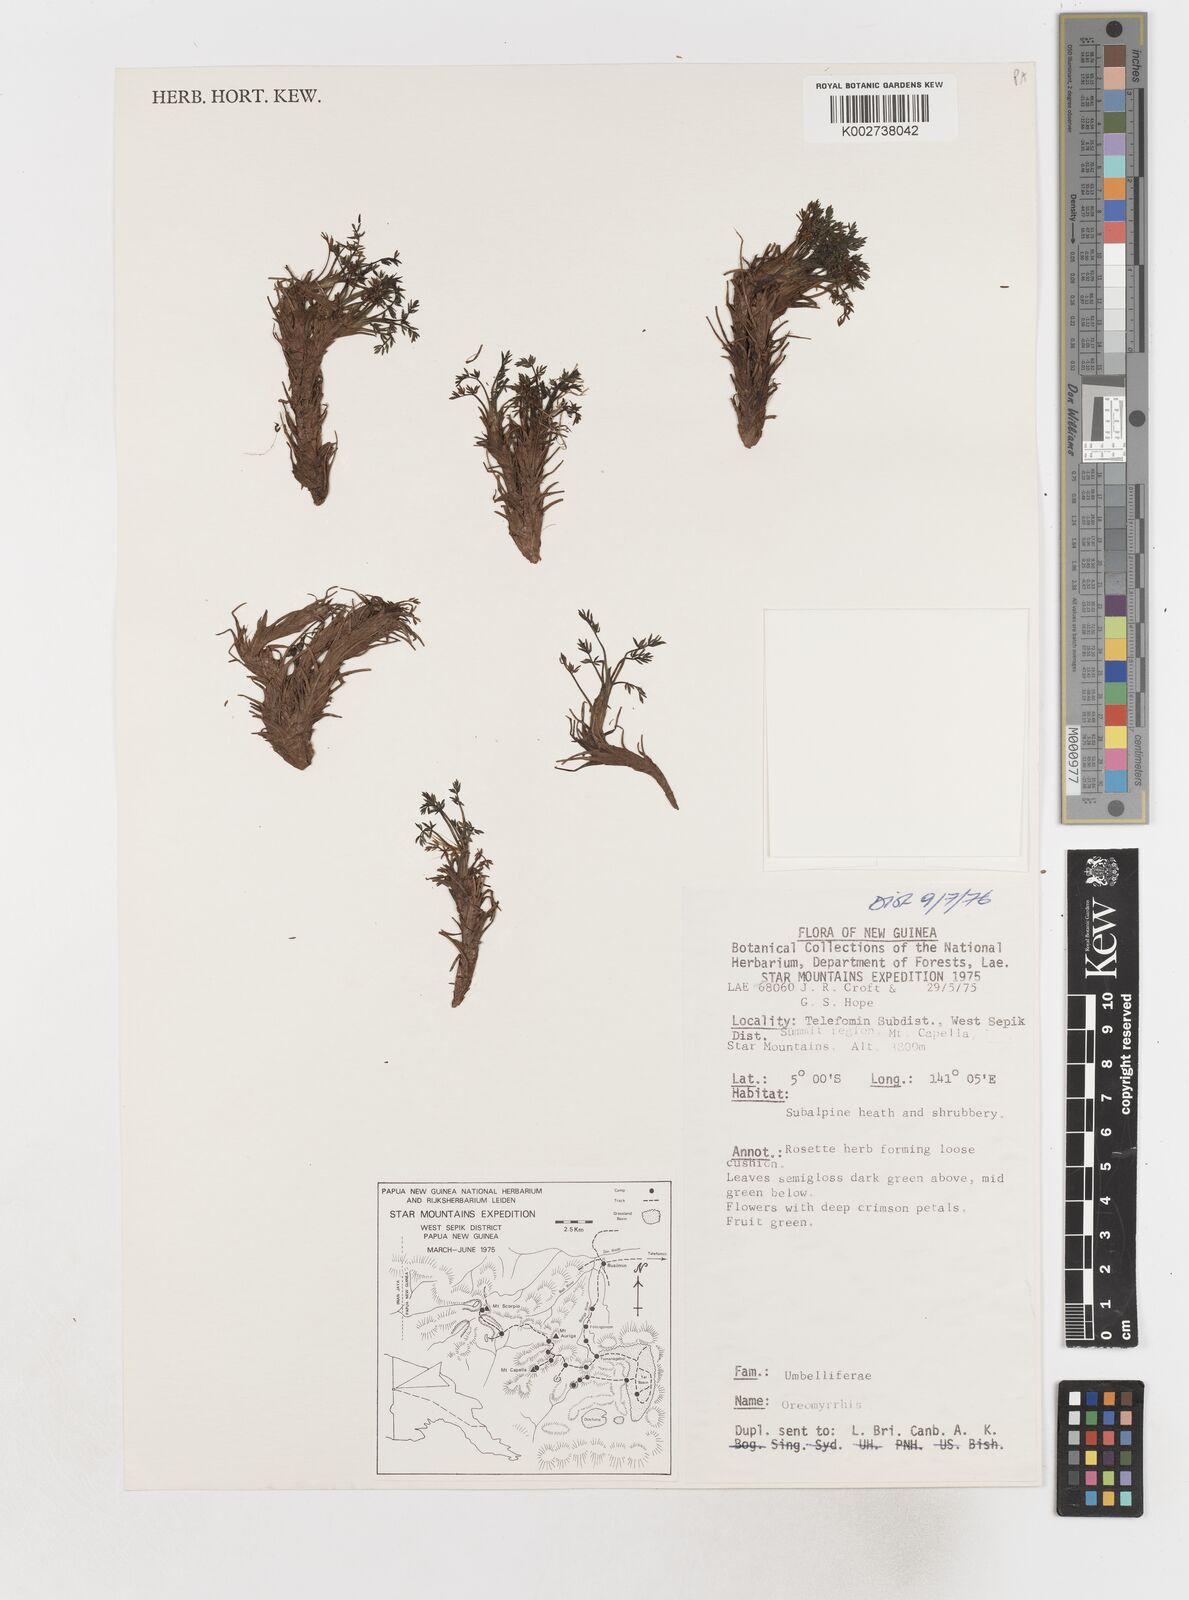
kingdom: Plantae
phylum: Tracheophyta
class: Magnoliopsida
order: Apiales
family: Apiaceae
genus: Chaerophyllum
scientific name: Chaerophyllum pumilum
